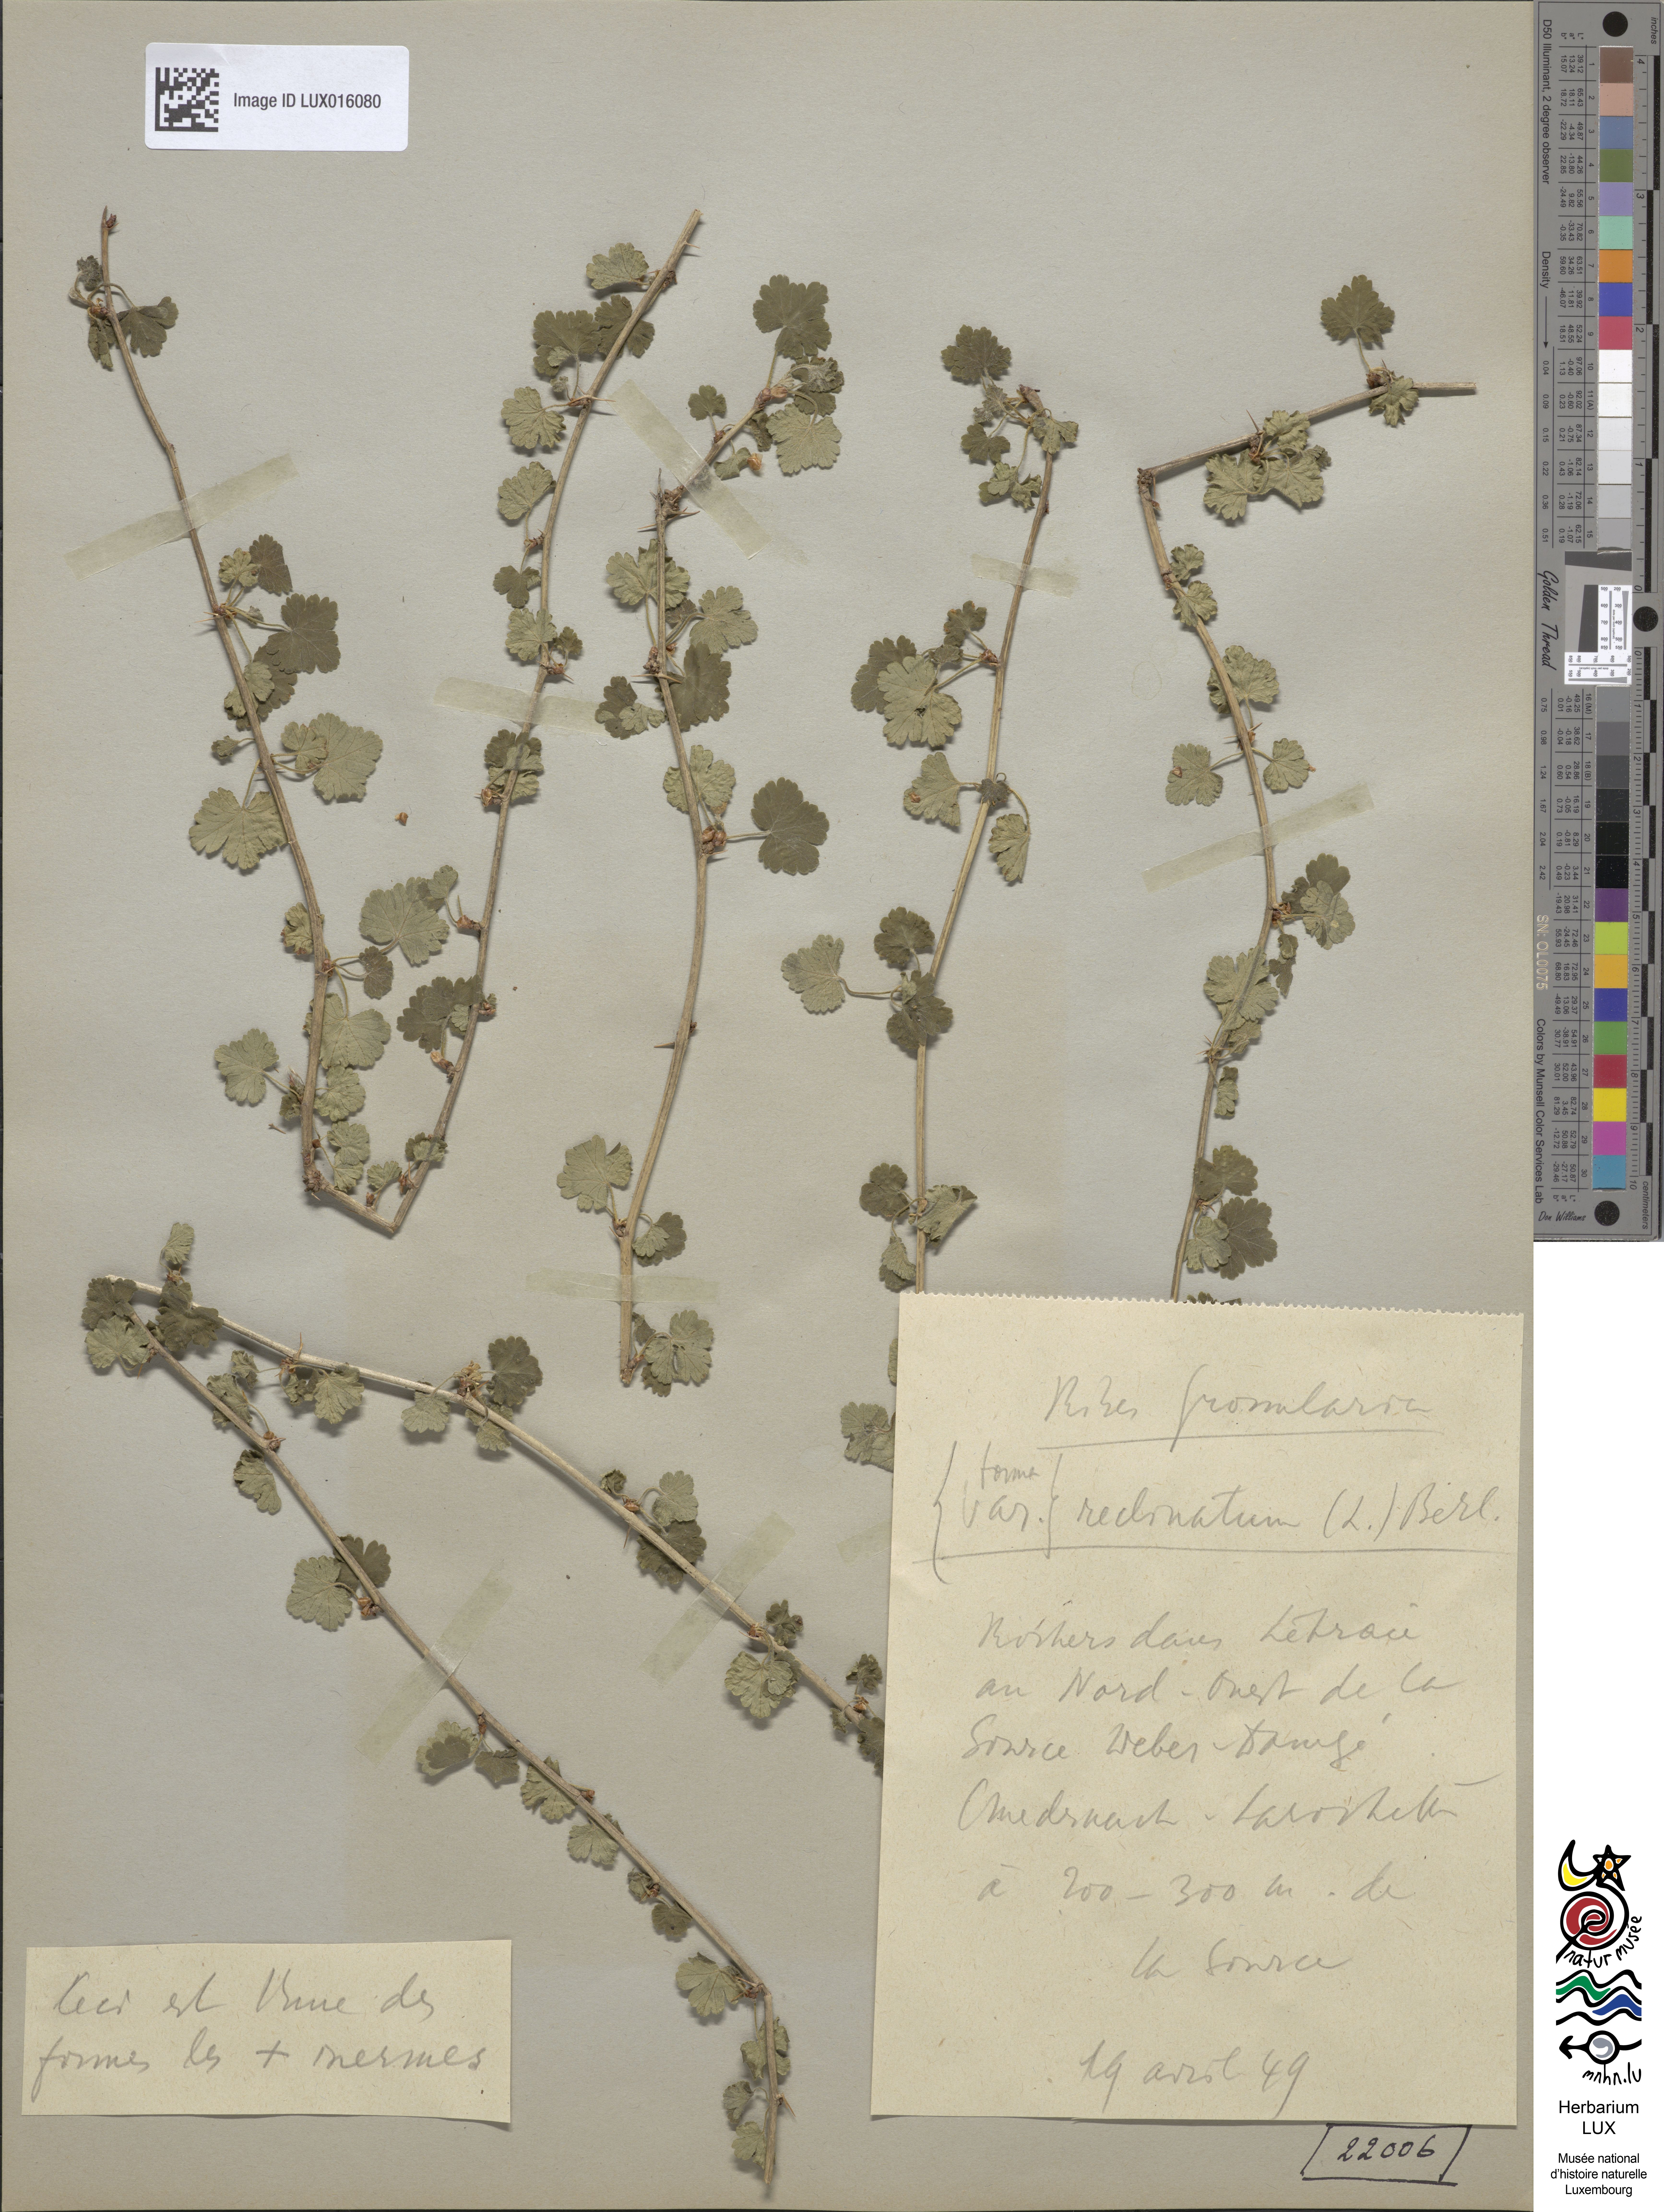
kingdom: Plantae
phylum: Tracheophyta
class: Magnoliopsida
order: Saxifragales
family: Grossulariaceae
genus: Ribes
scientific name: Ribes uva-crispa
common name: Gooseberry
